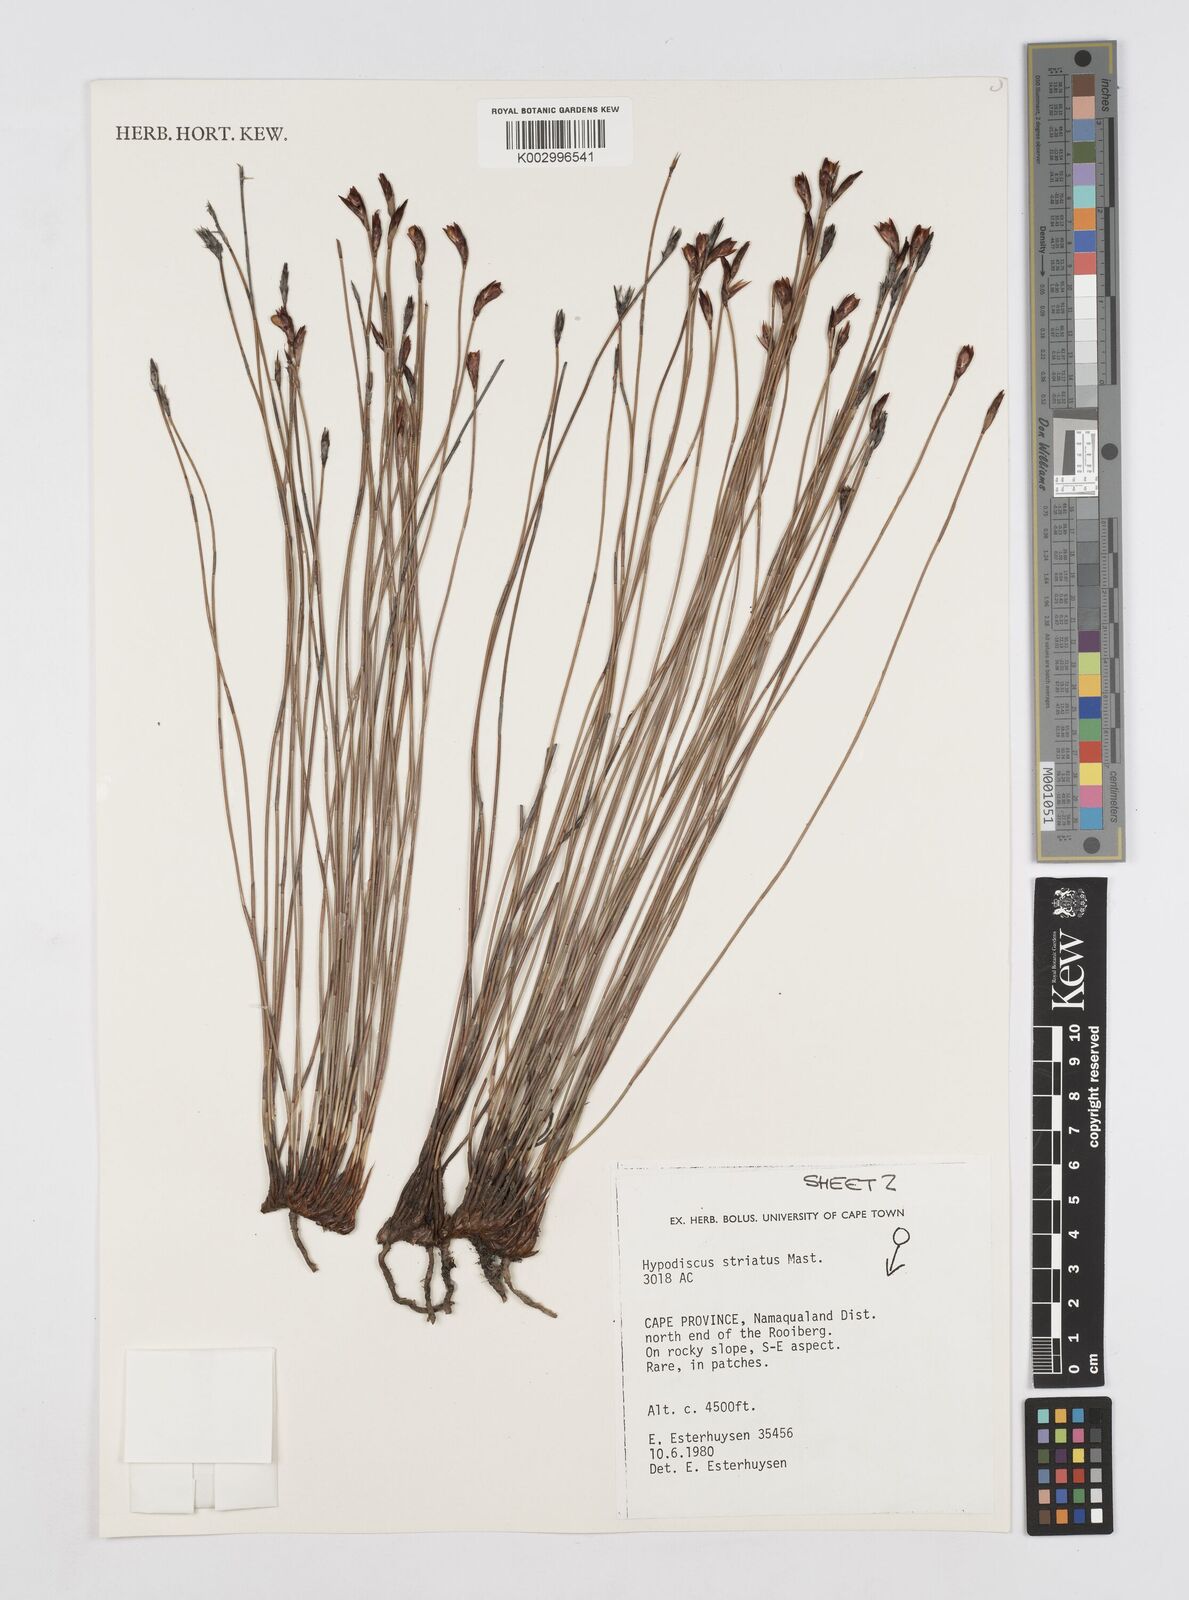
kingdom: Plantae
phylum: Tracheophyta
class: Liliopsida
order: Poales
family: Restionaceae
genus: Hypodiscus
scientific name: Hypodiscus striatus
